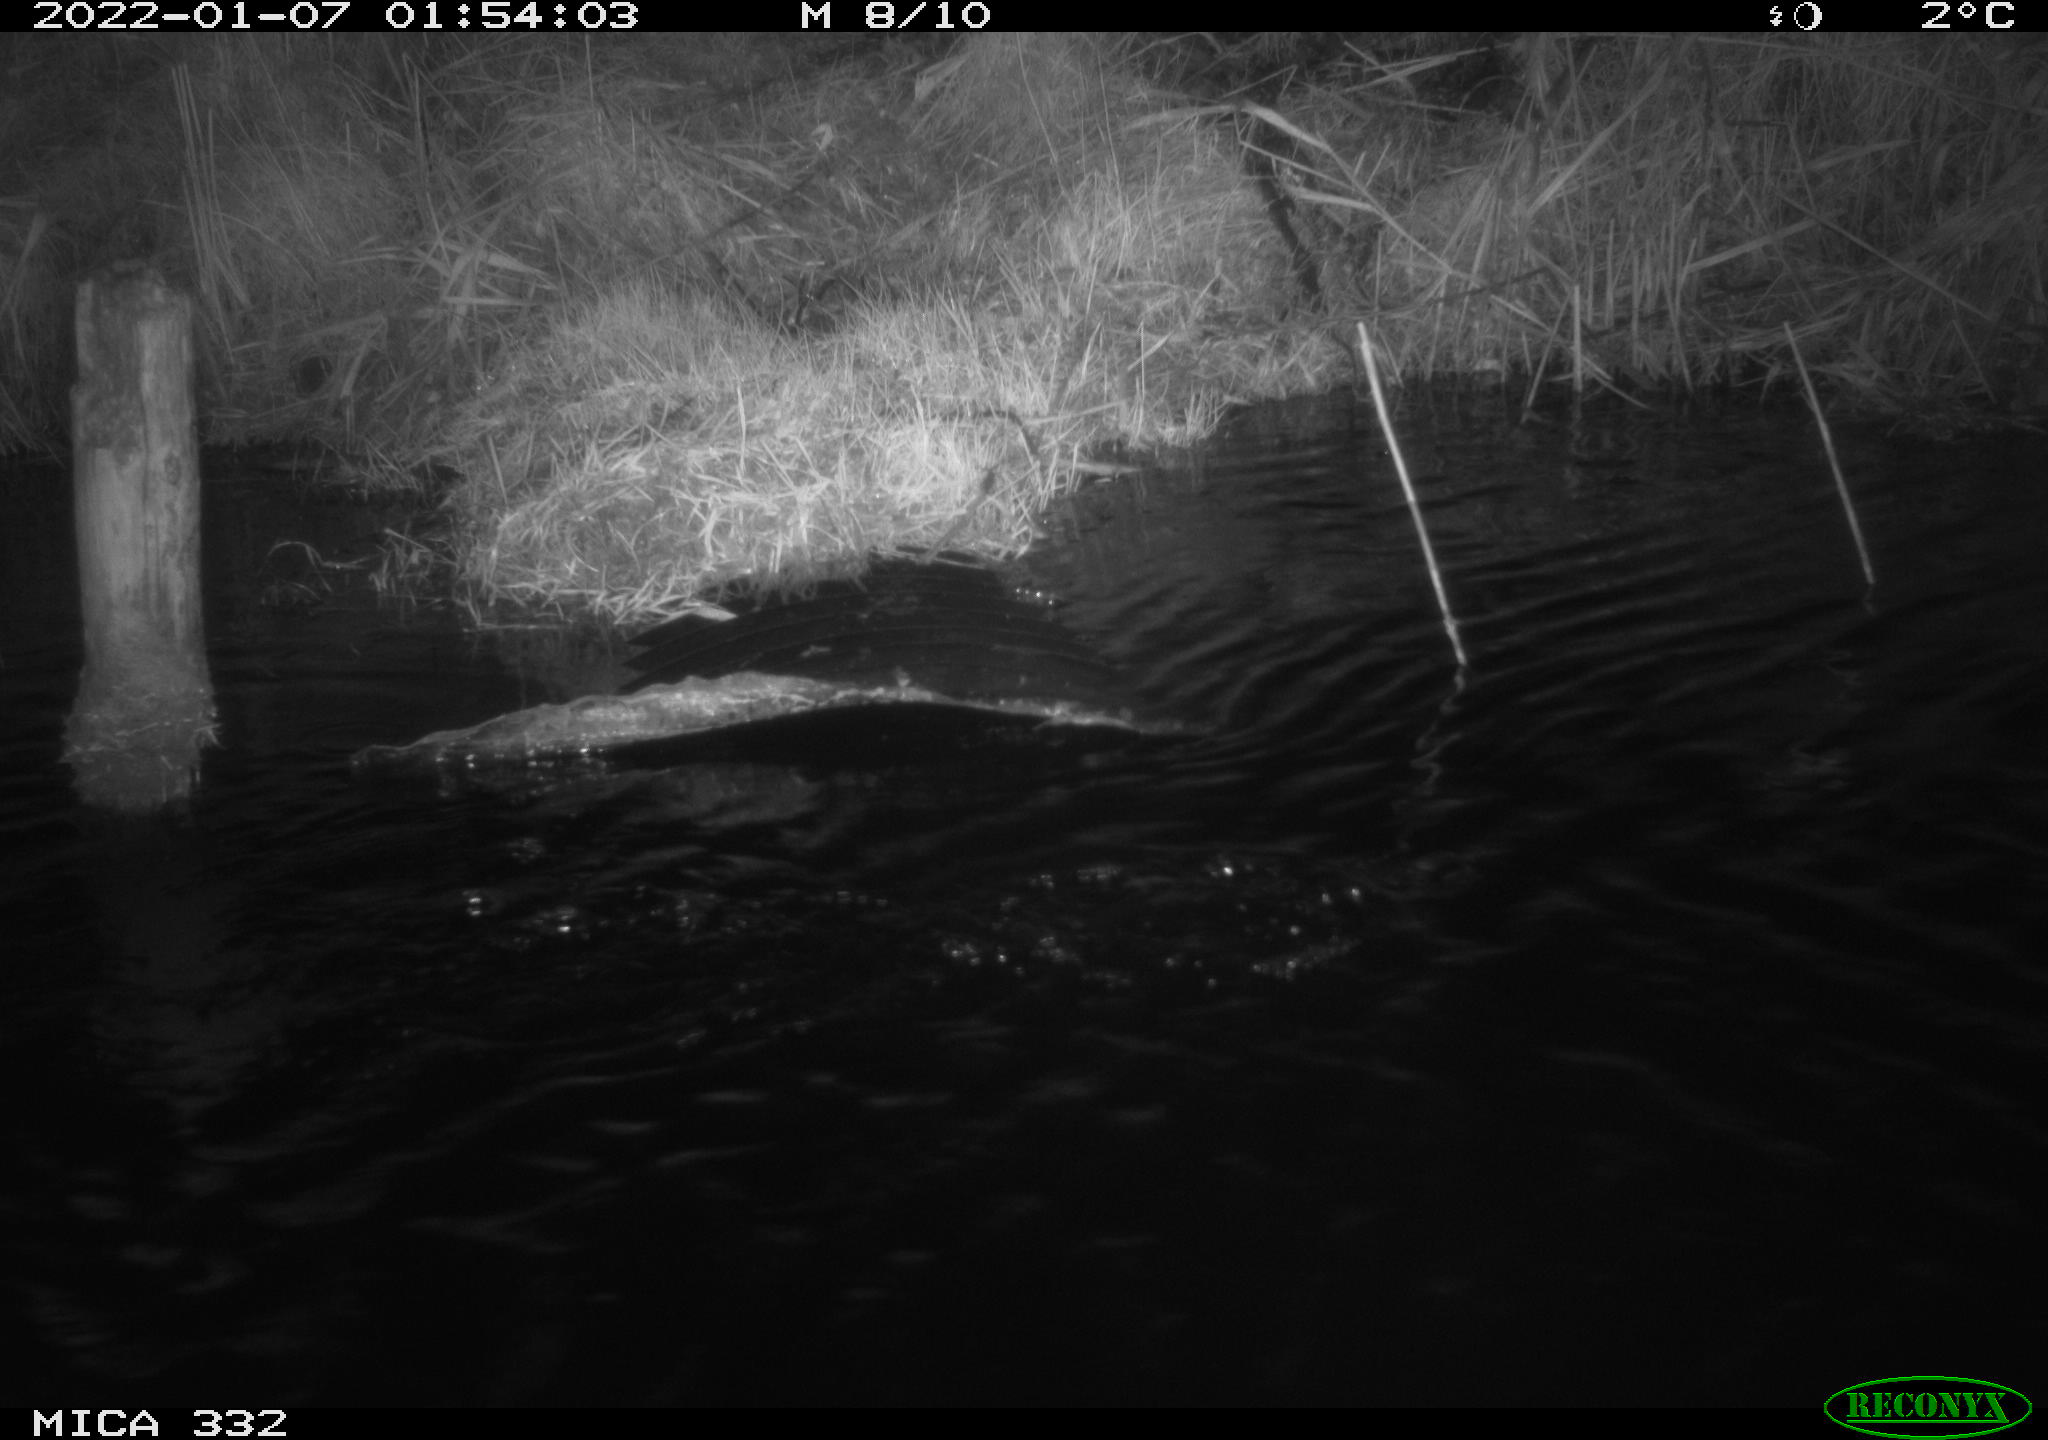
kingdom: Animalia
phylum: Chordata
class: Mammalia
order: Carnivora
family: Mustelidae
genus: Lutra
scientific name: Lutra lutra
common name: European otter
